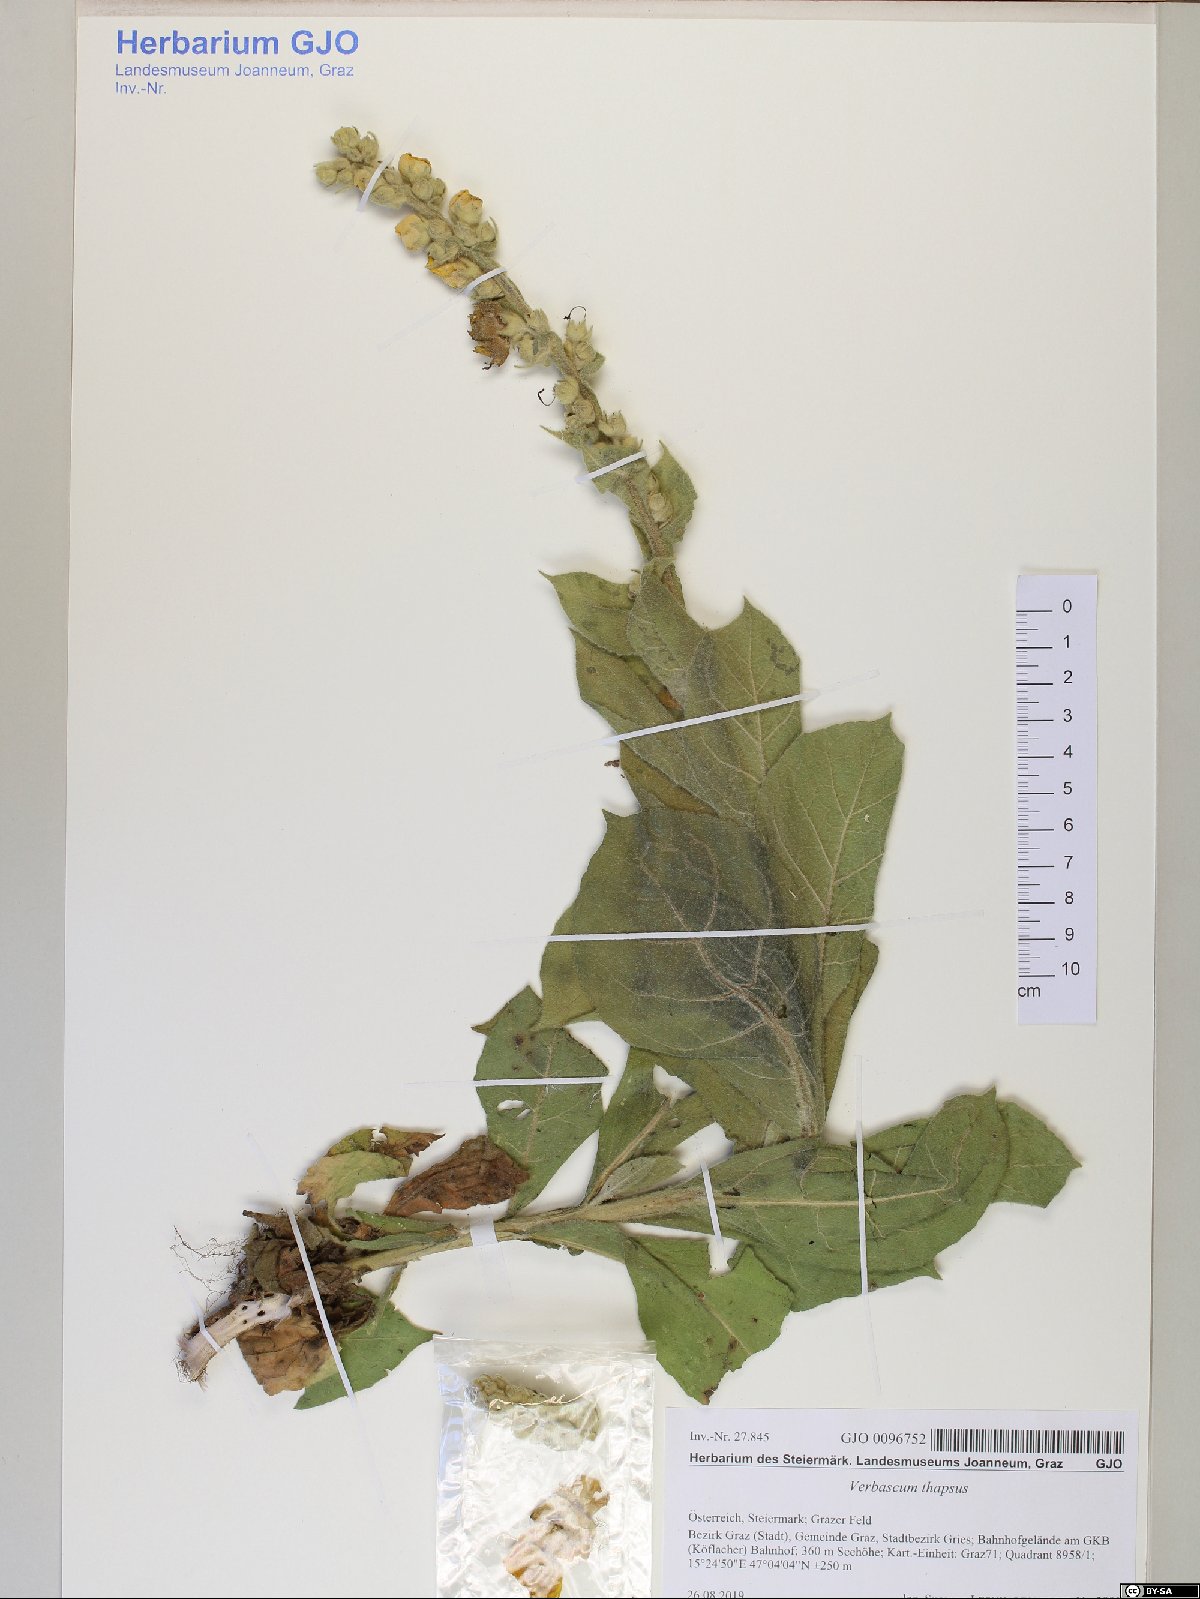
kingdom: Plantae
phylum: Tracheophyta
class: Magnoliopsida
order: Lamiales
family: Scrophulariaceae
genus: Verbascum
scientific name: Verbascum thapsus
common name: Common mullein
